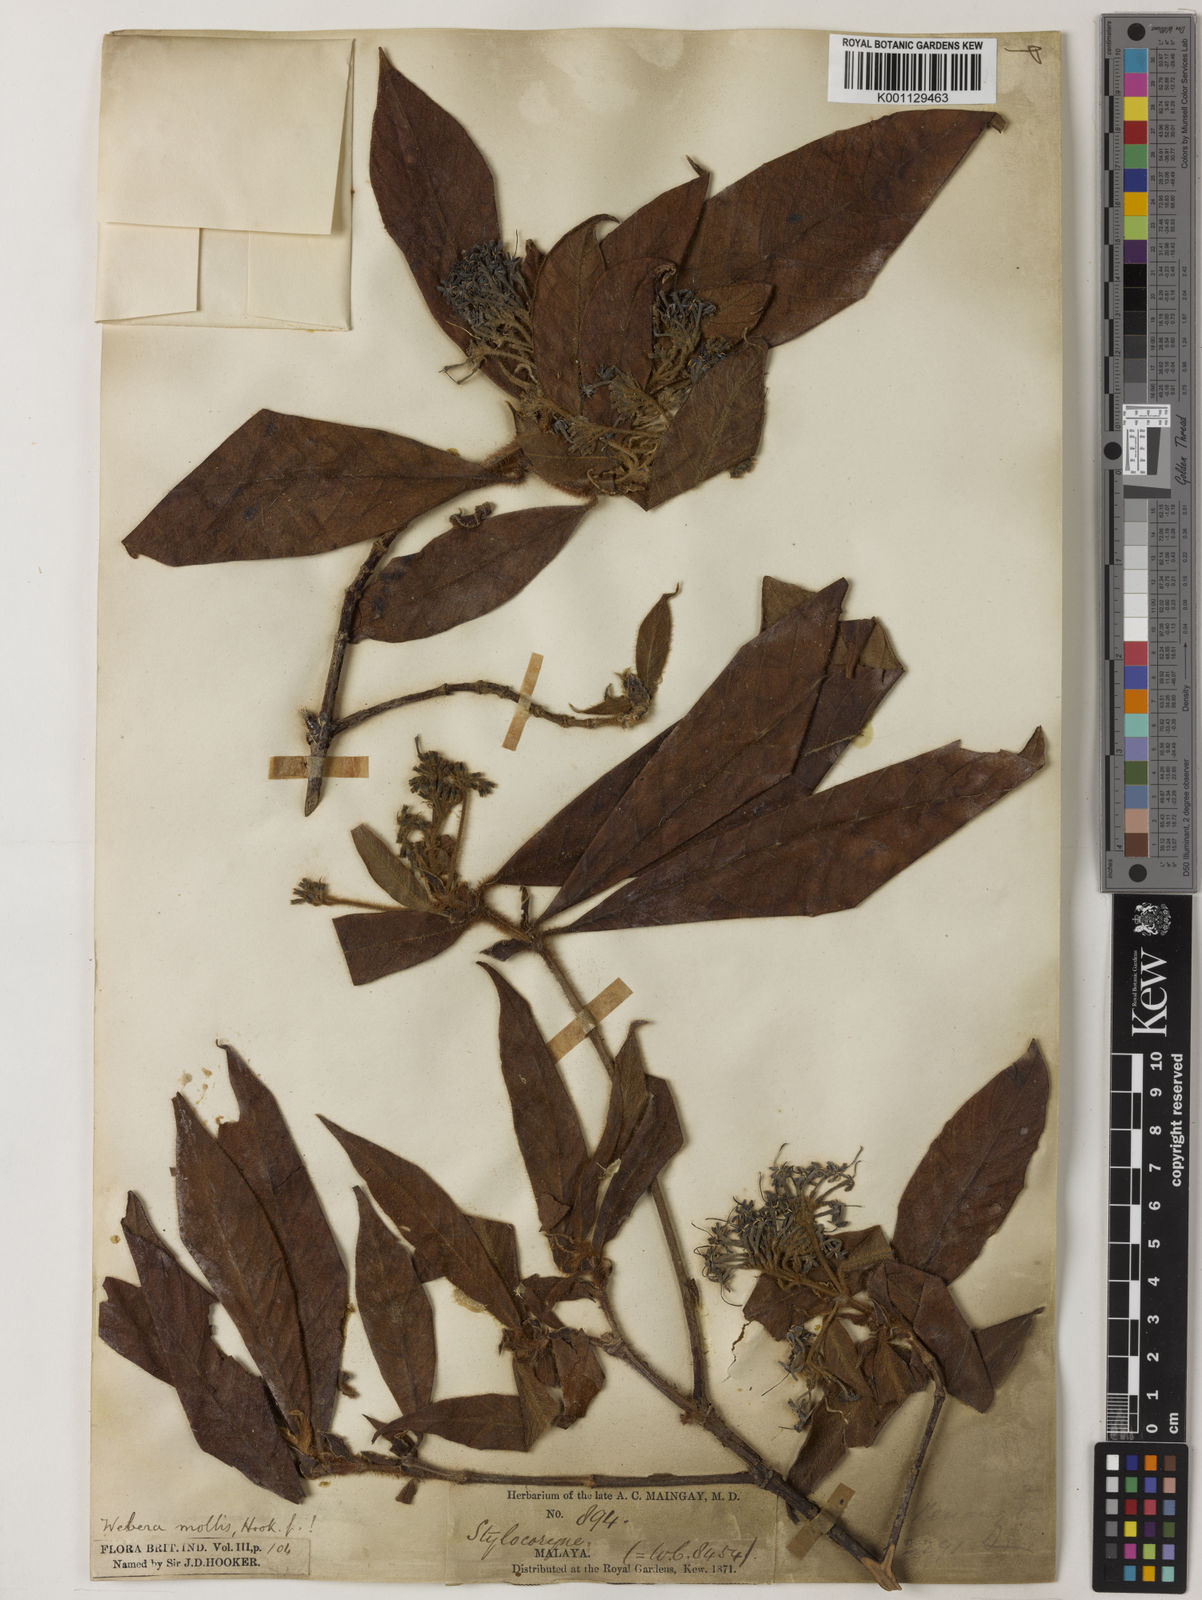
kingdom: Plantae
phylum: Tracheophyta
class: Magnoliopsida
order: Gentianales
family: Rubiaceae
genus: Tarenna
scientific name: Tarenna mollis
